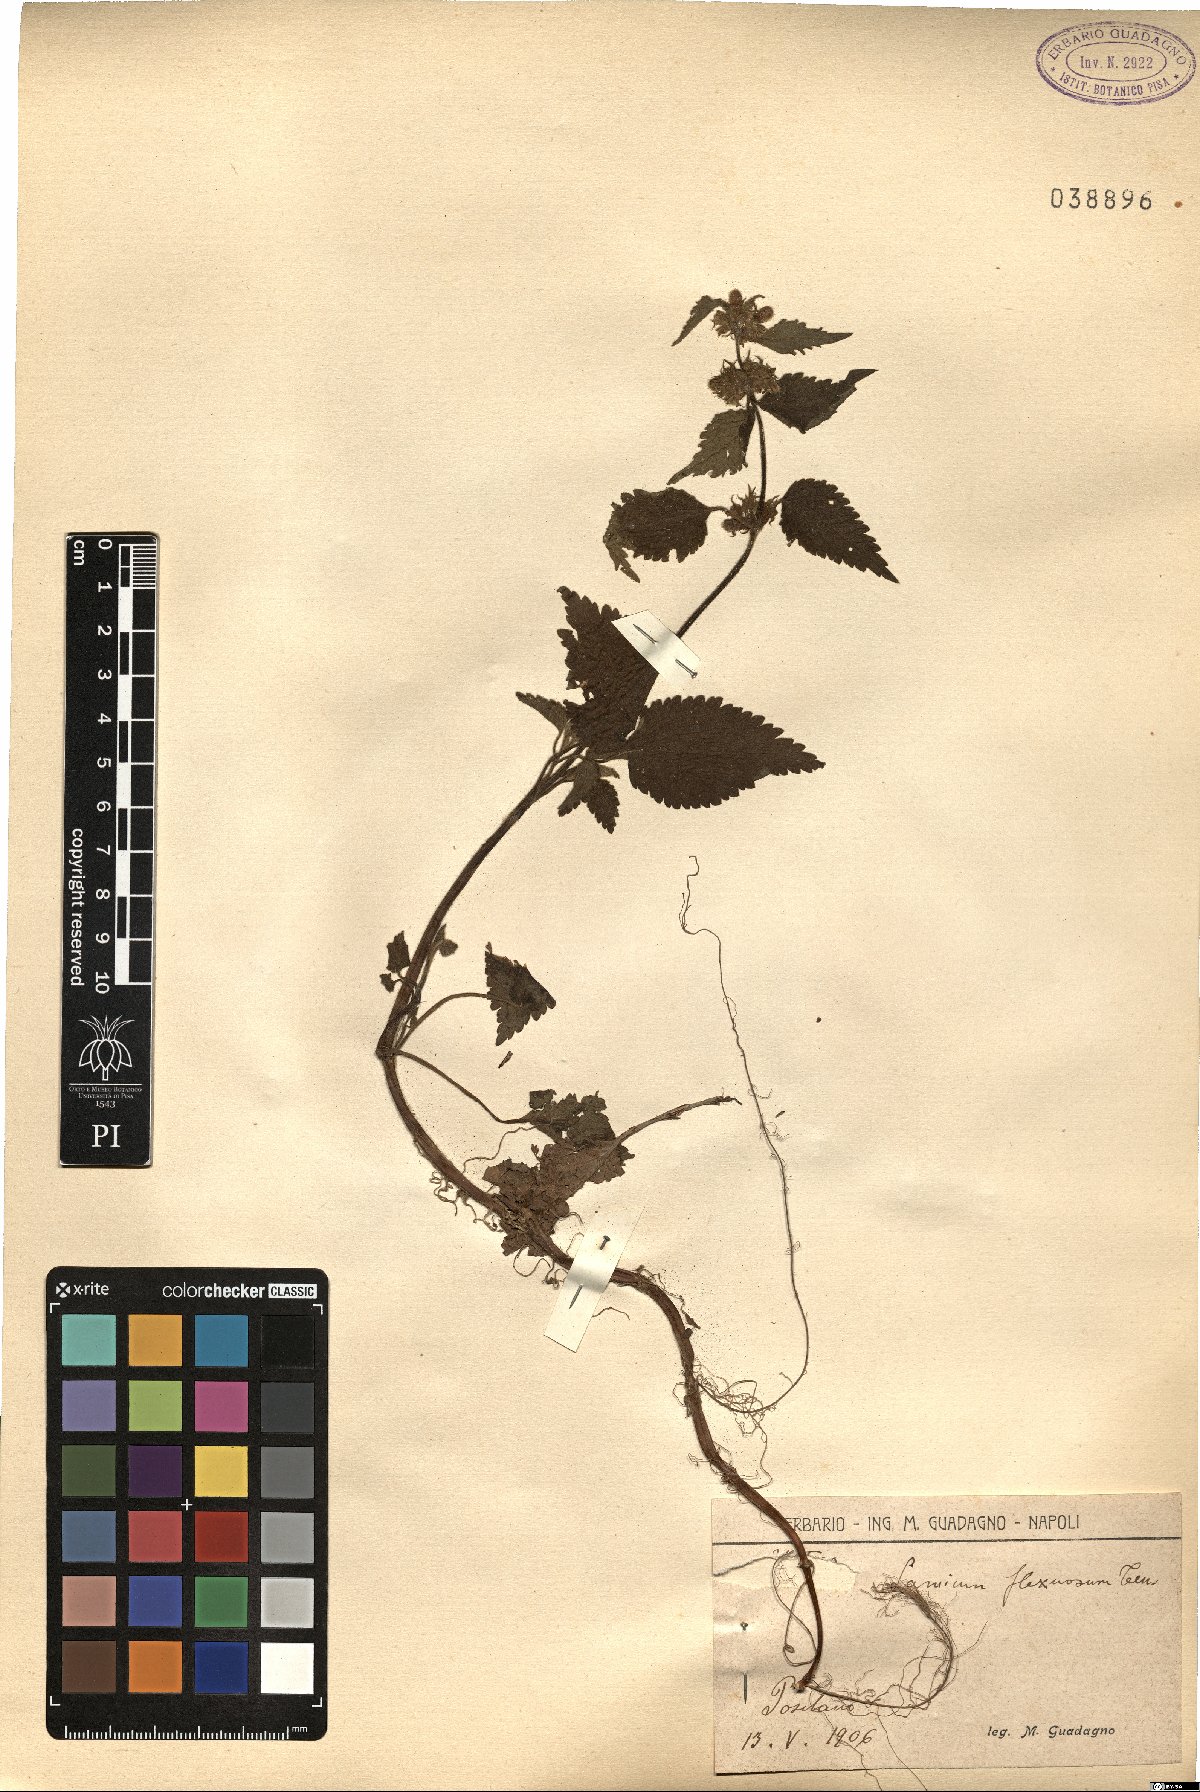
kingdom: Plantae
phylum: Tracheophyta
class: Magnoliopsida
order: Lamiales
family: Lamiaceae
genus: Lamium
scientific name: Lamium flexuosum
